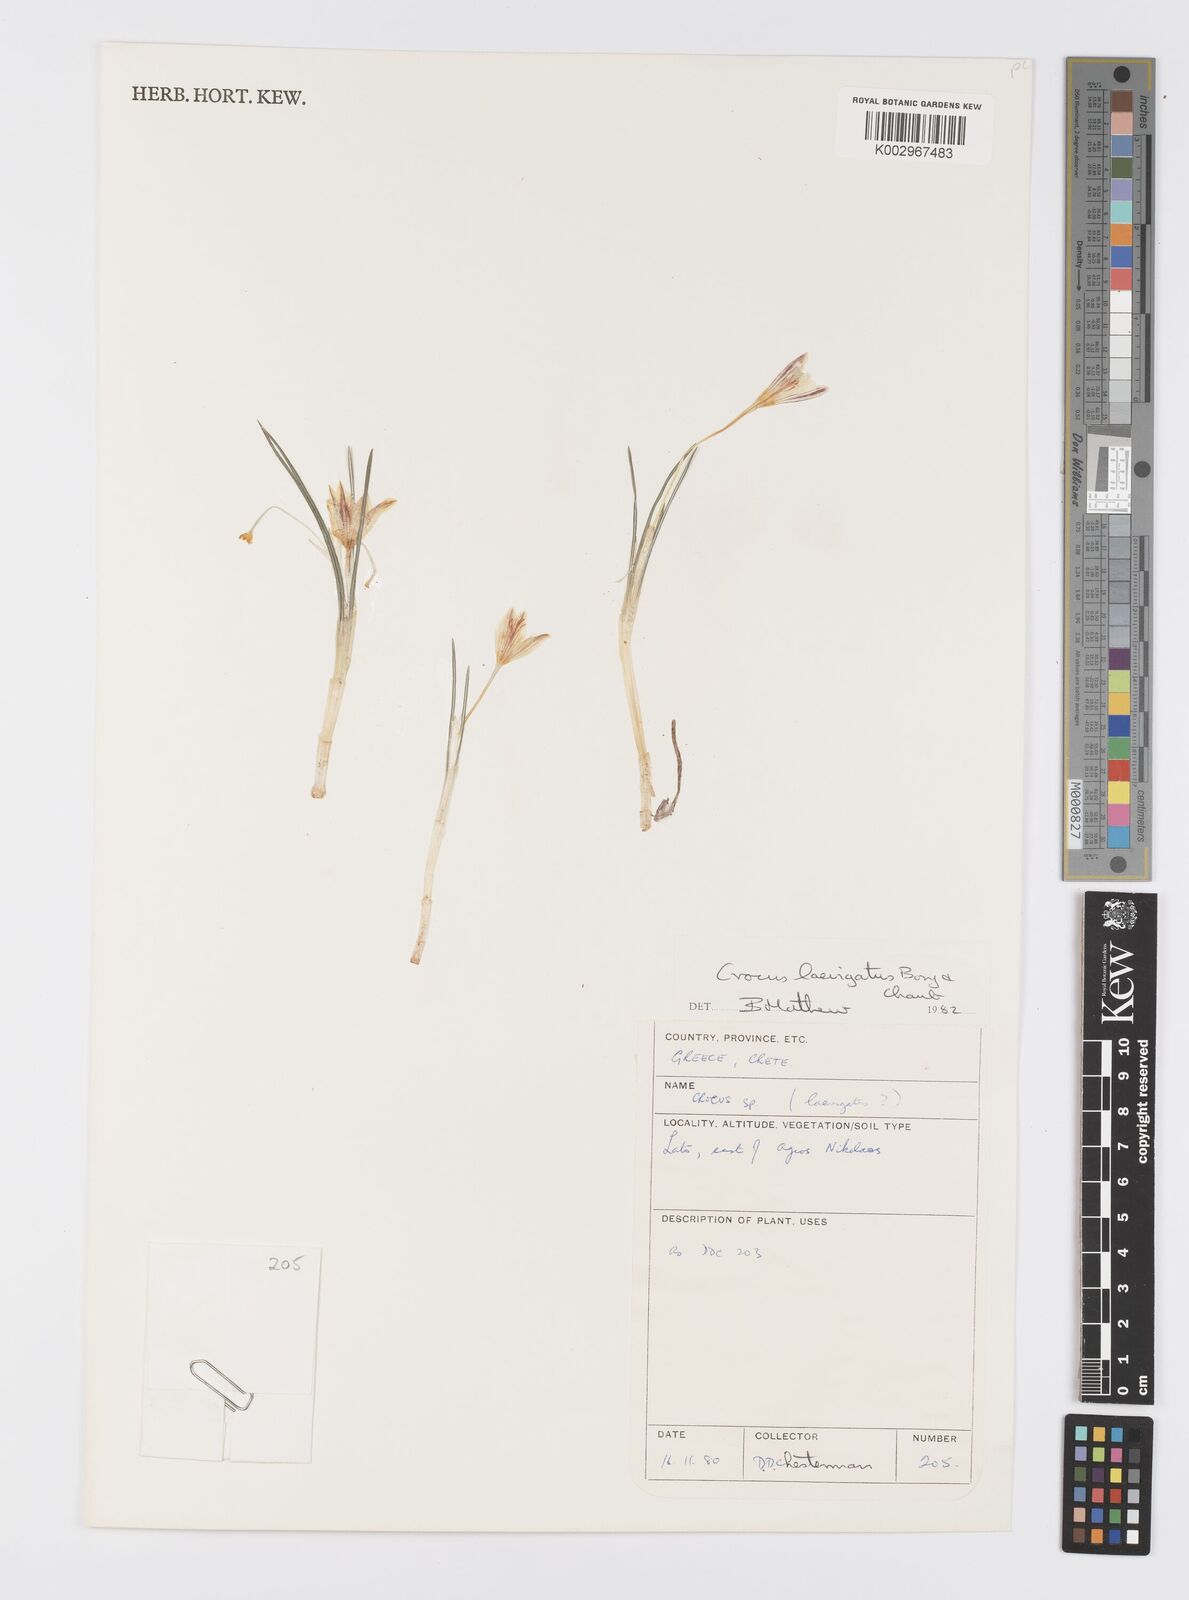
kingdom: Plantae
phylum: Tracheophyta
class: Liliopsida
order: Asparagales
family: Iridaceae
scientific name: Iridaceae
